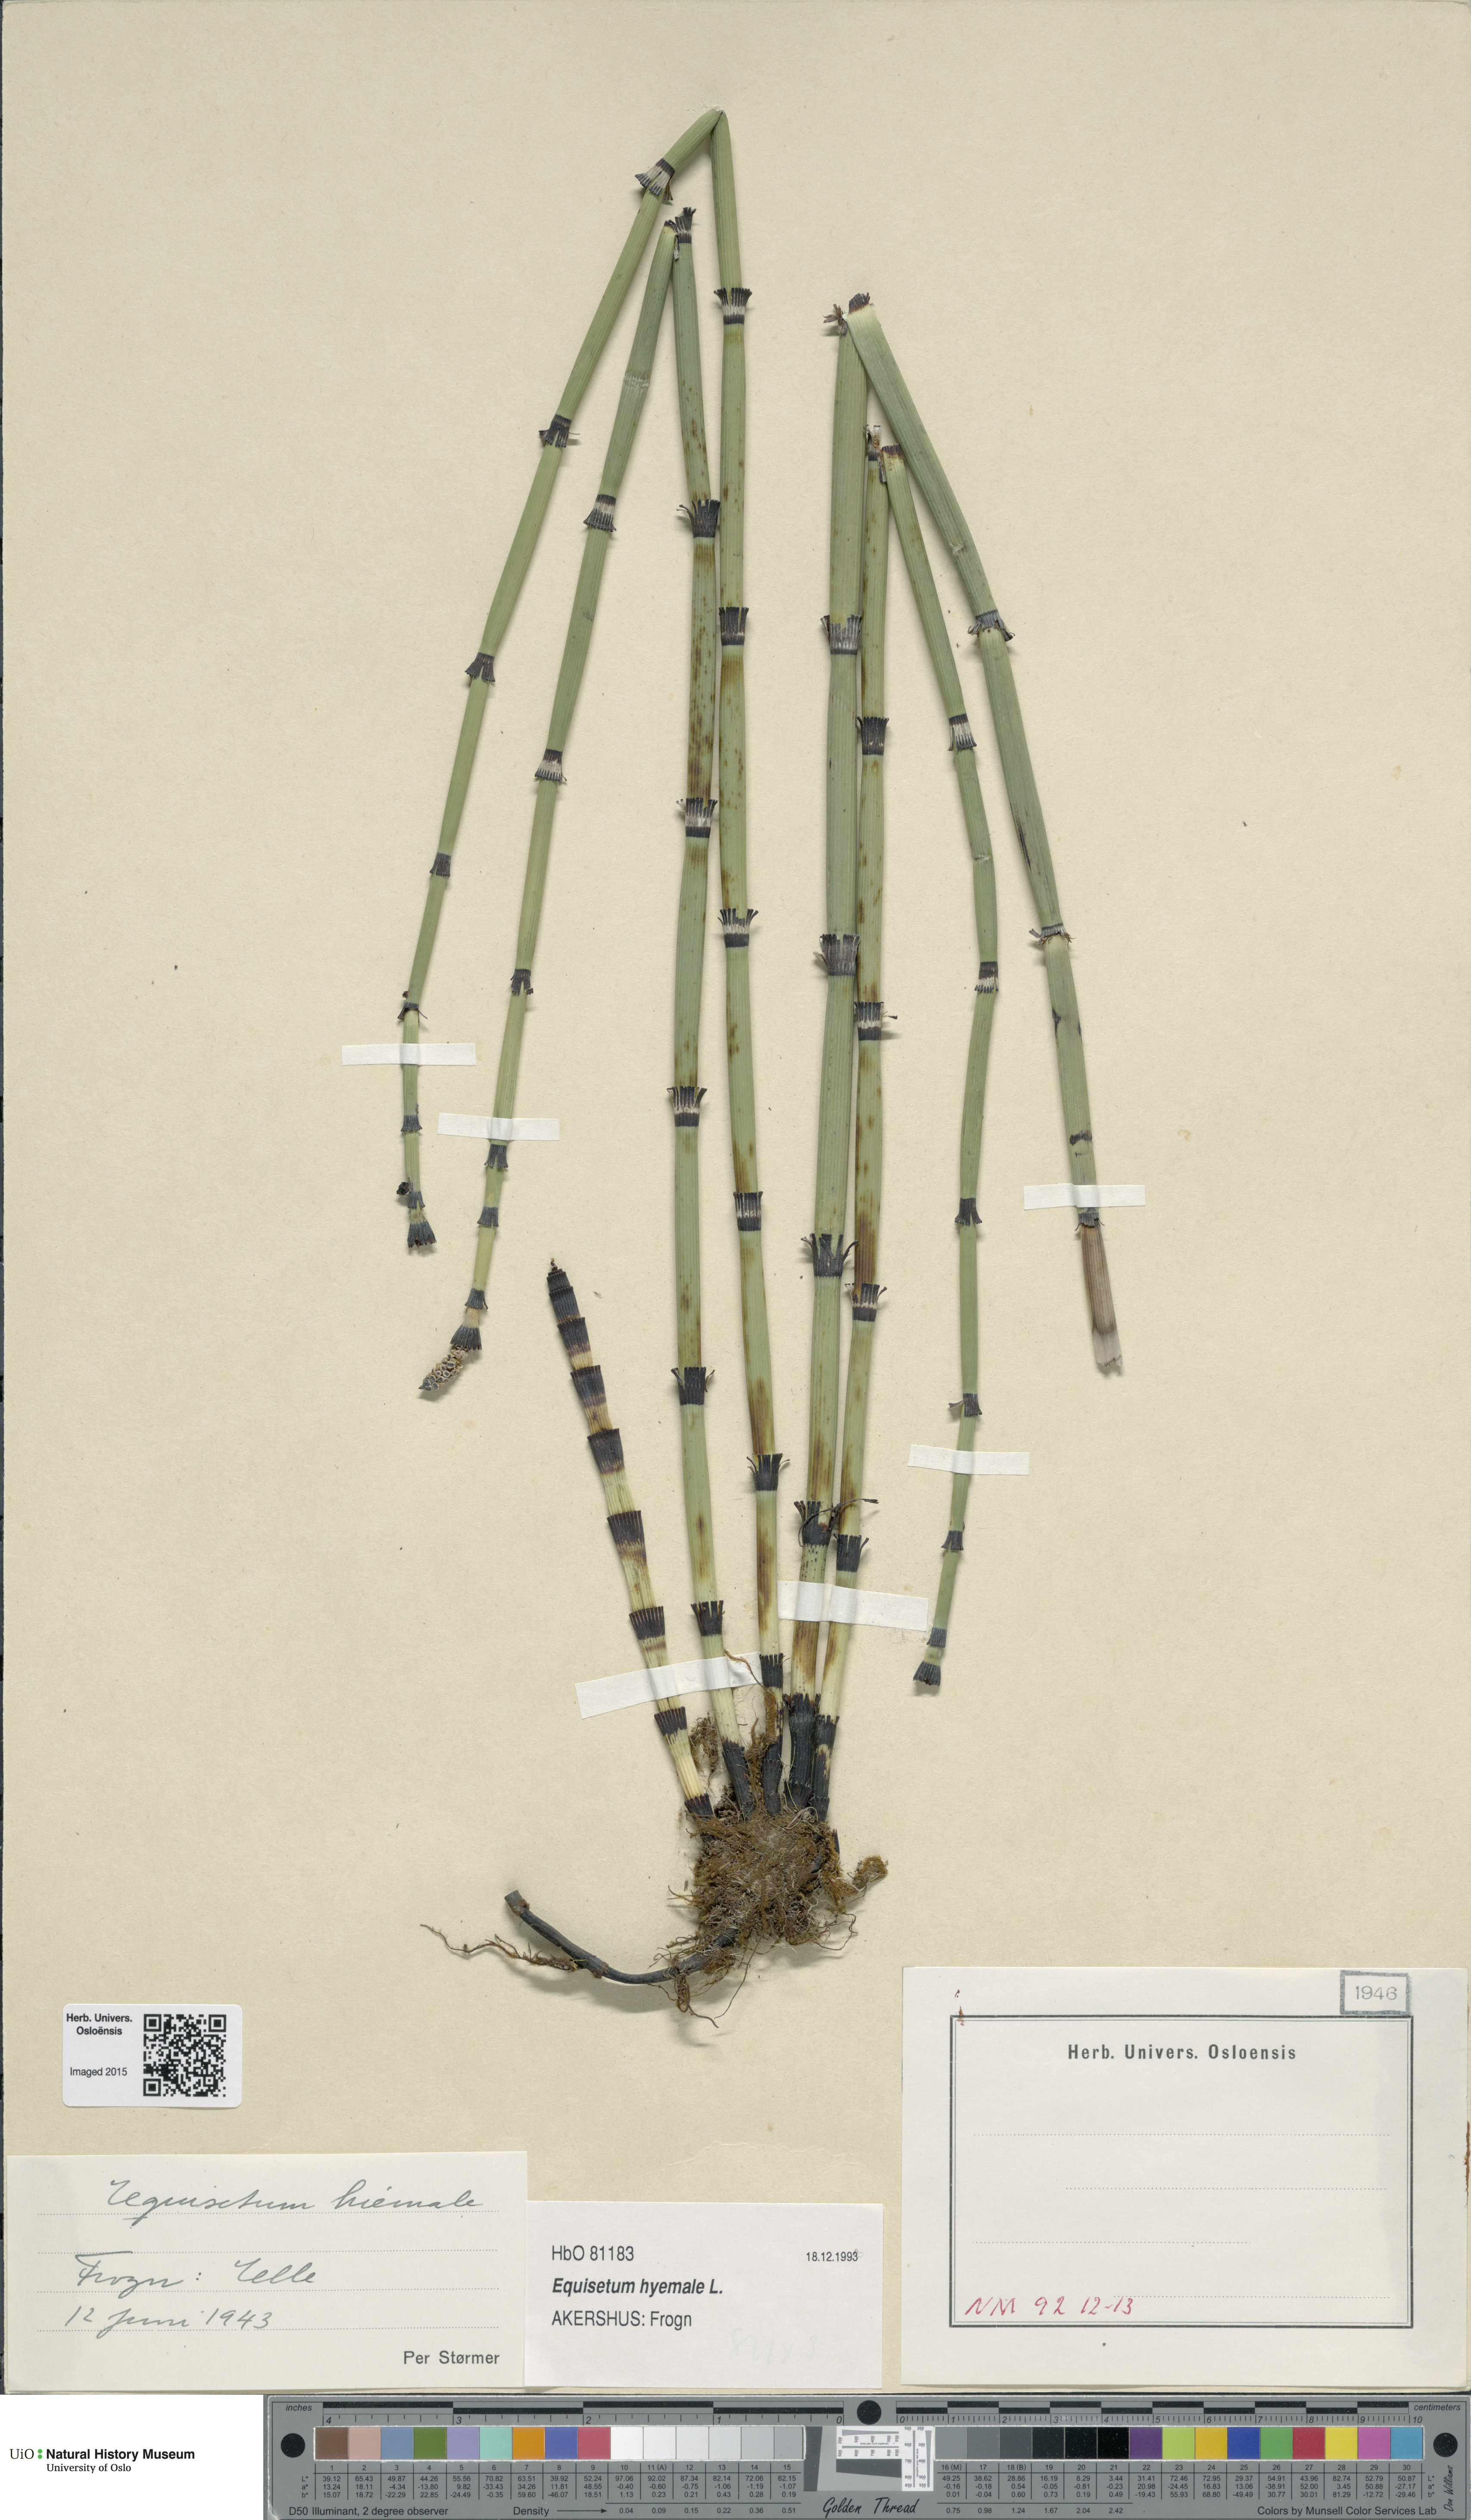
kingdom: Plantae
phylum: Tracheophyta
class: Polypodiopsida
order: Equisetales
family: Equisetaceae
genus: Equisetum
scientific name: Equisetum hyemale
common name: Rough horsetail
